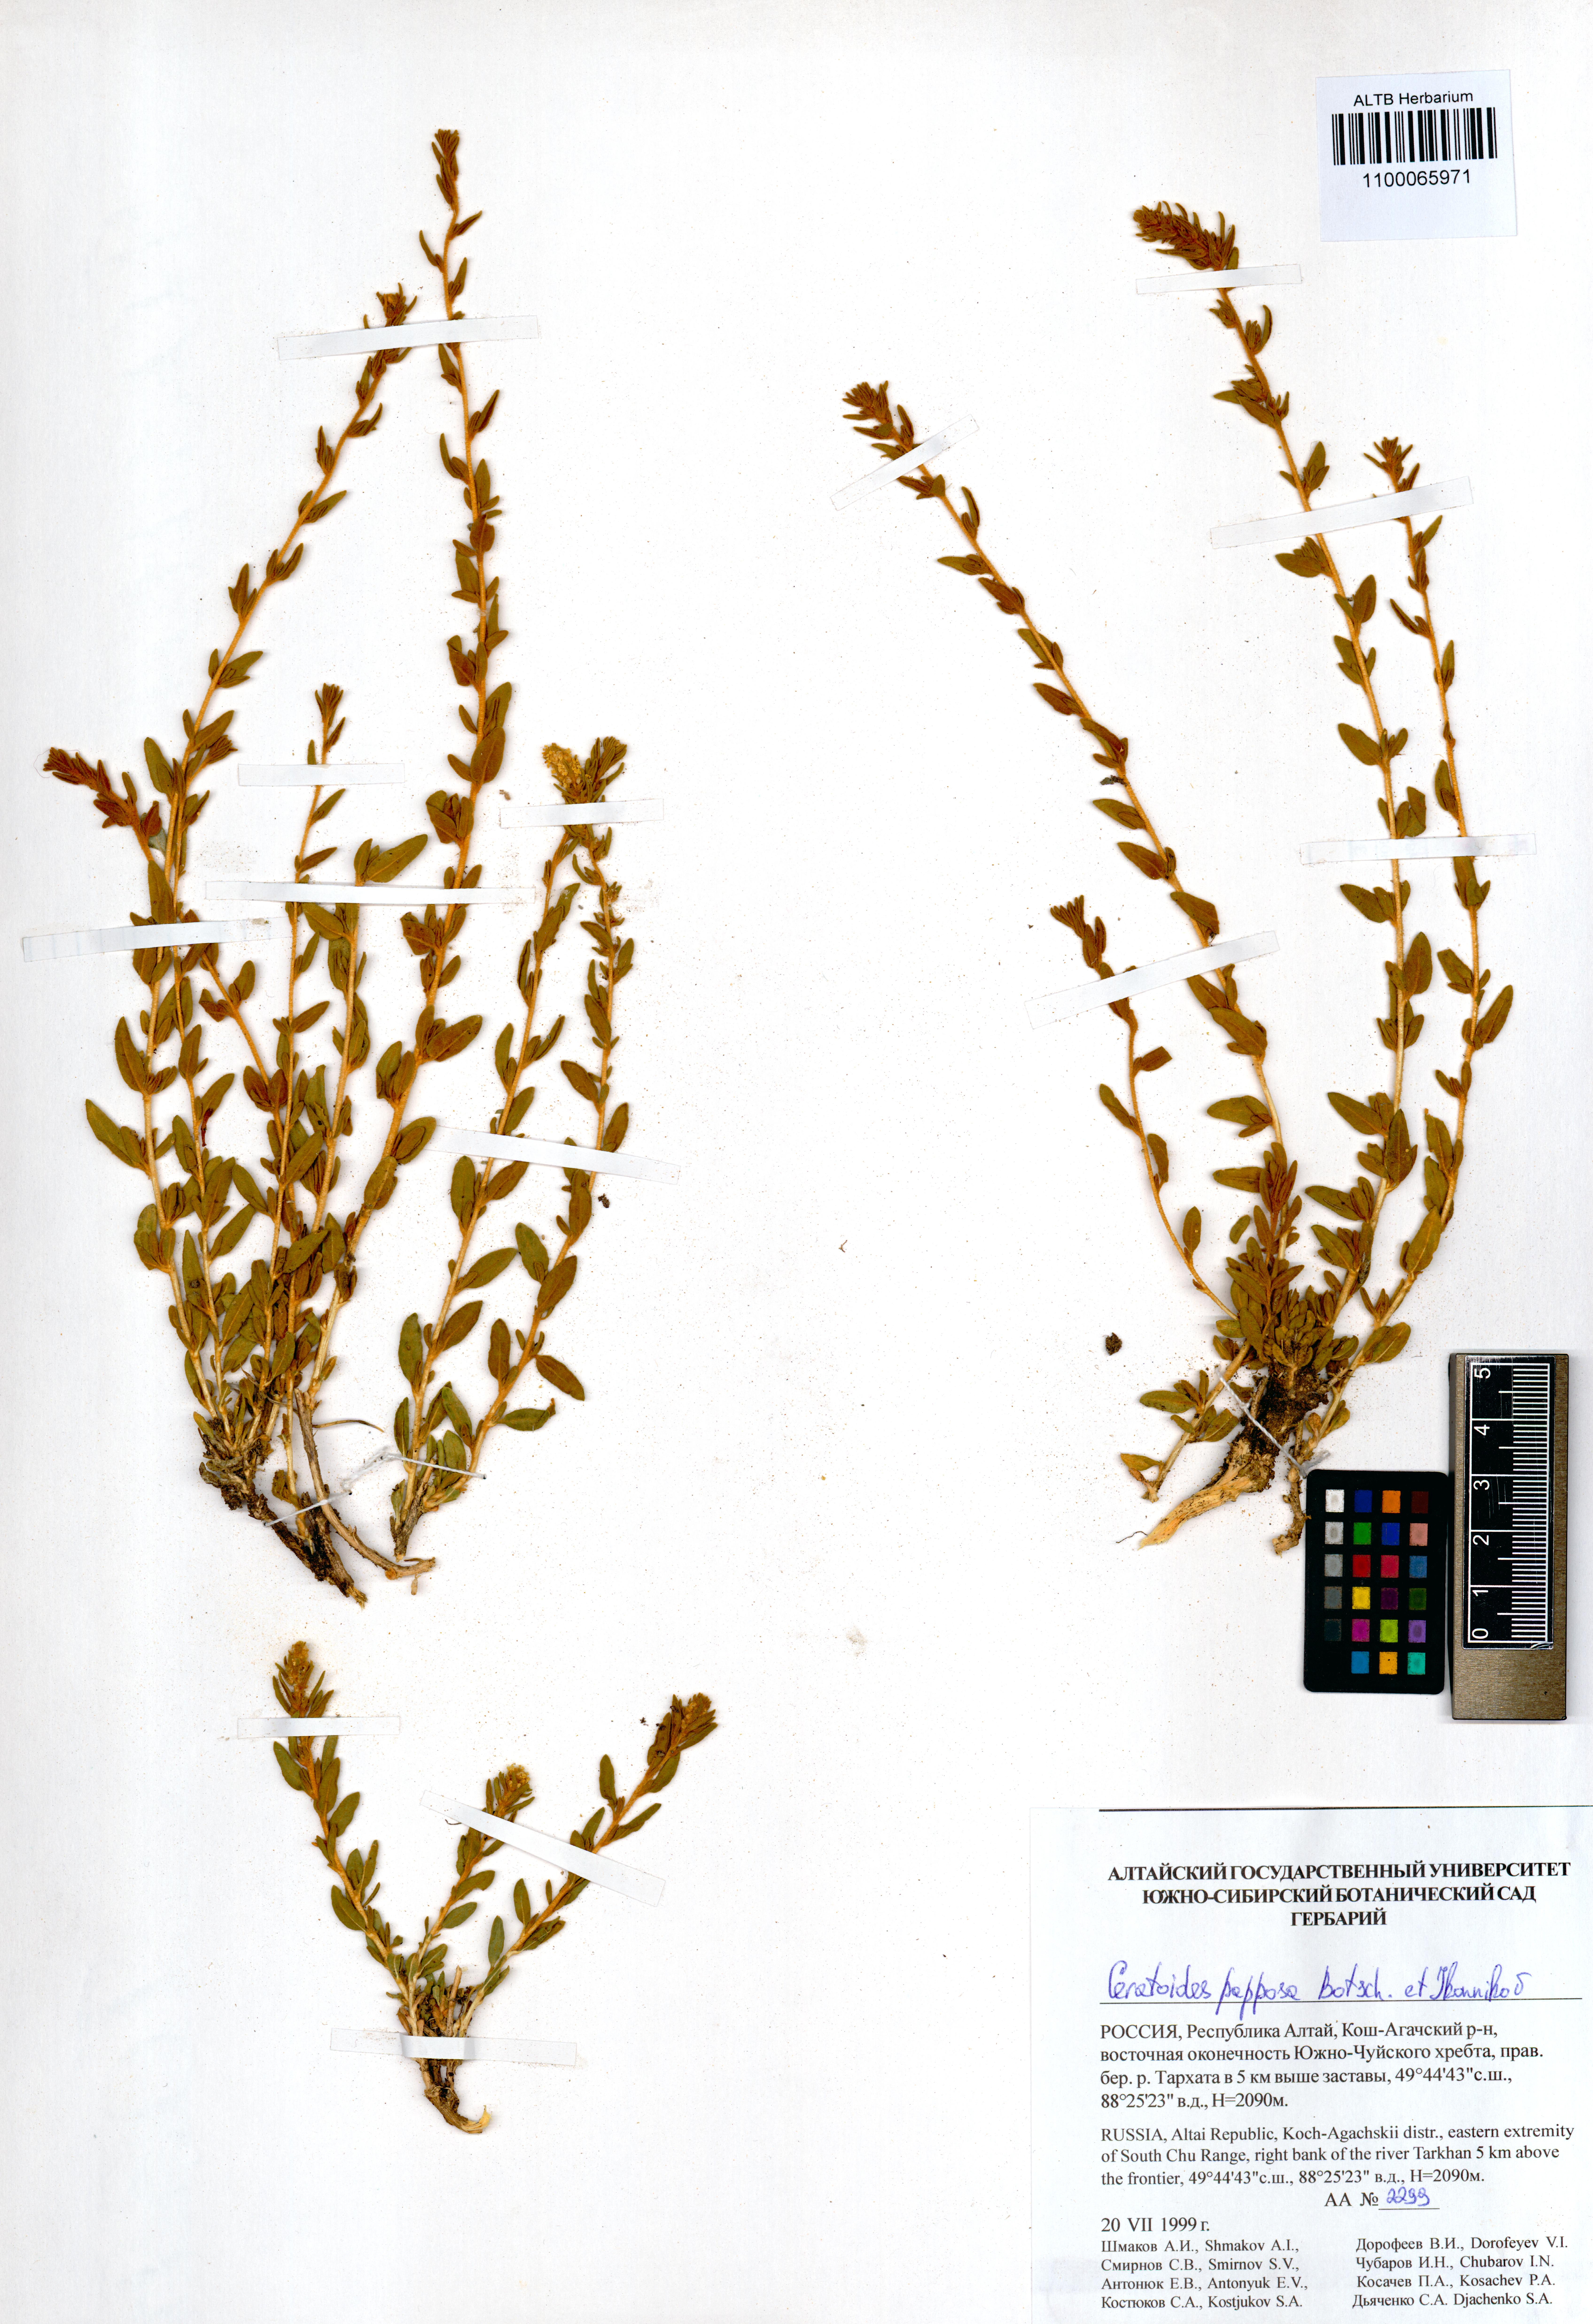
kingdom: Plantae
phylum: Tracheophyta
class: Magnoliopsida
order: Caryophyllales
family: Amaranthaceae
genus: Krascheninnikovia
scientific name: Krascheninnikovia ceratoides
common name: Pamirian winterfat
